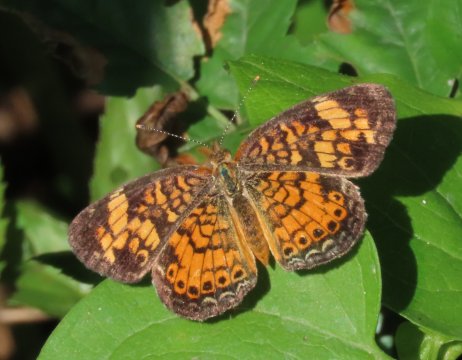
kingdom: Animalia
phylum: Arthropoda
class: Insecta
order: Lepidoptera
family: Nymphalidae
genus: Phyciodes
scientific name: Phyciodes tharos
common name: Pearl Crescent
